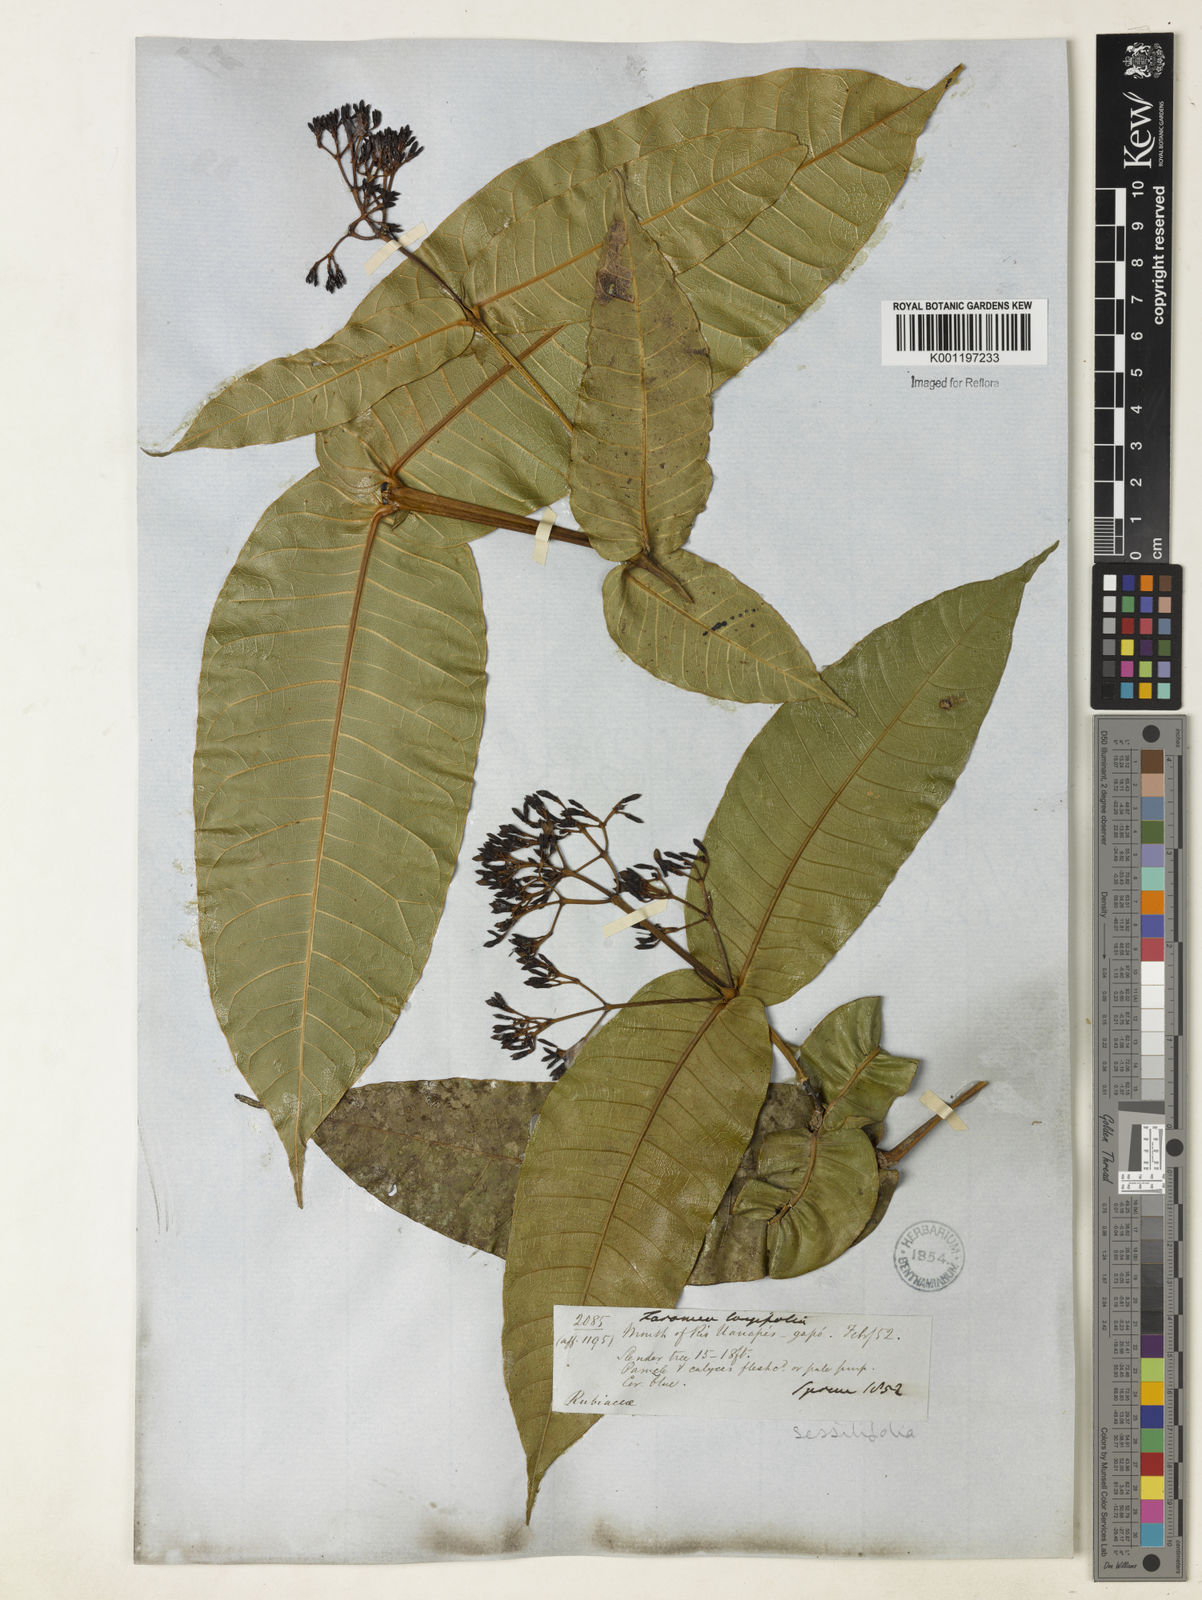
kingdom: Plantae
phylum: Tracheophyta
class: Magnoliopsida
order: Gentianales
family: Rubiaceae
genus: Faramea
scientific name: Faramea sessilifolia
